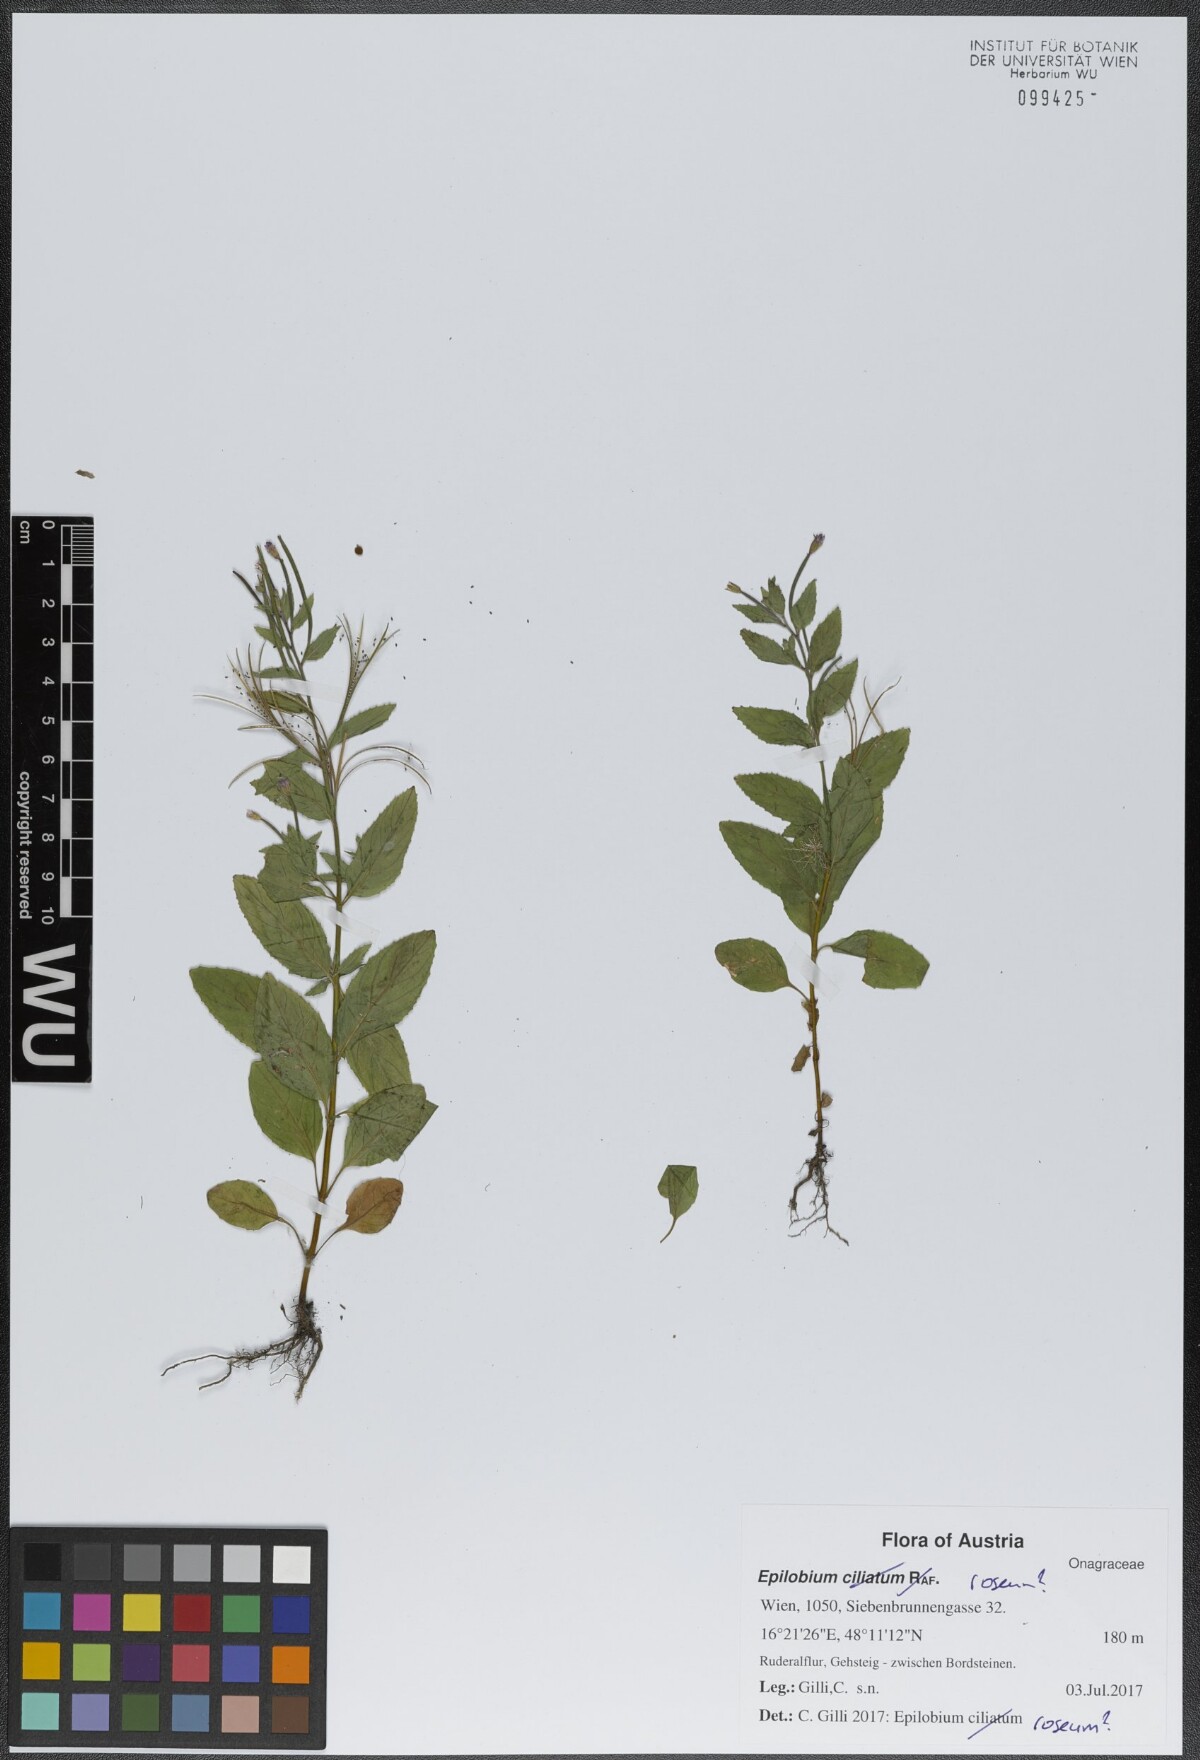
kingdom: Plantae
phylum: Tracheophyta
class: Magnoliopsida
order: Myrtales
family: Onagraceae
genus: Epilobium
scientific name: Epilobium roseum
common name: Pale willowherb
